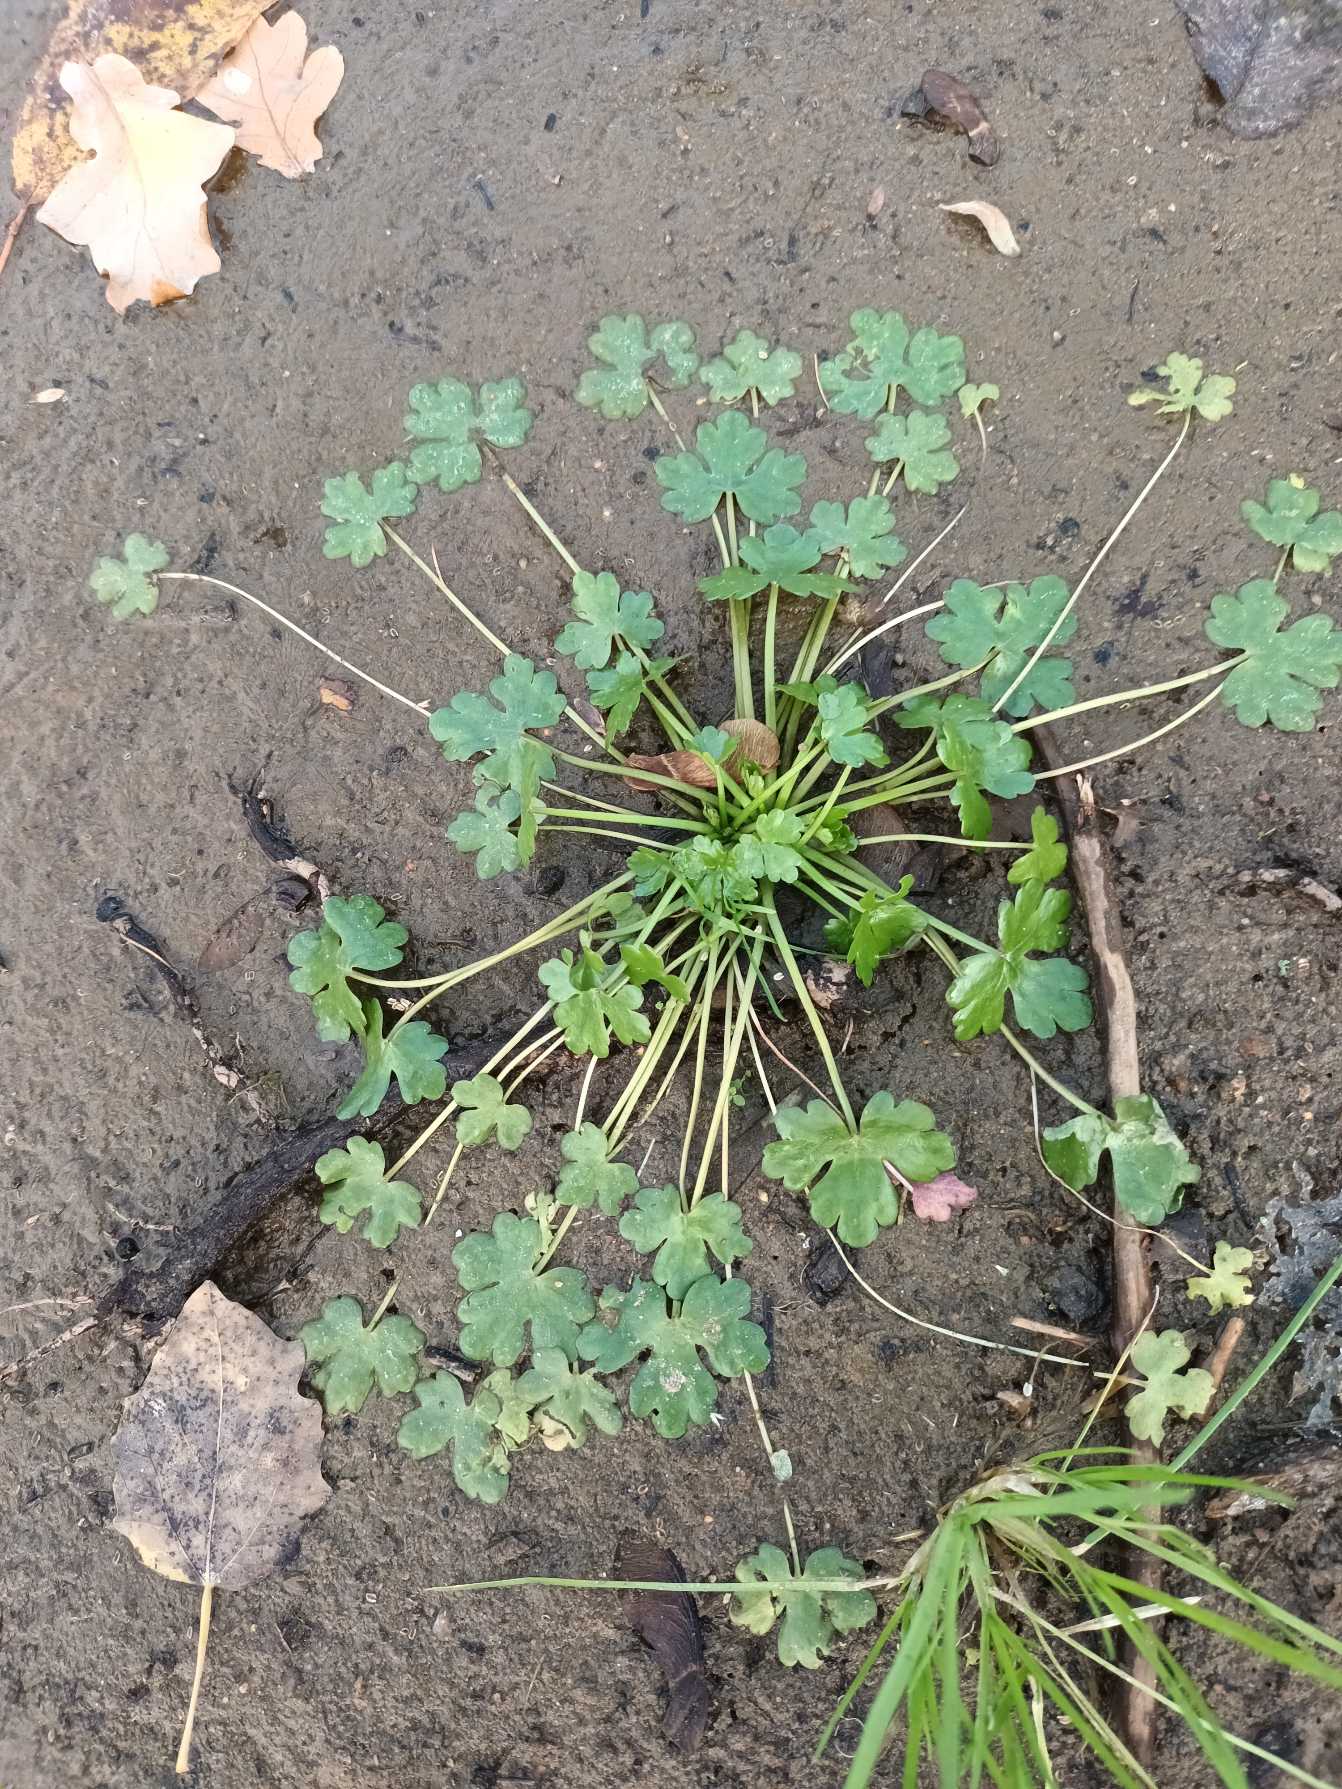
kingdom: Plantae
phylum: Tracheophyta
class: Magnoliopsida
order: Ranunculales
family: Ranunculaceae
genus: Ranunculus
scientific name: Ranunculus sceleratus
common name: Tigger-ranunkel
